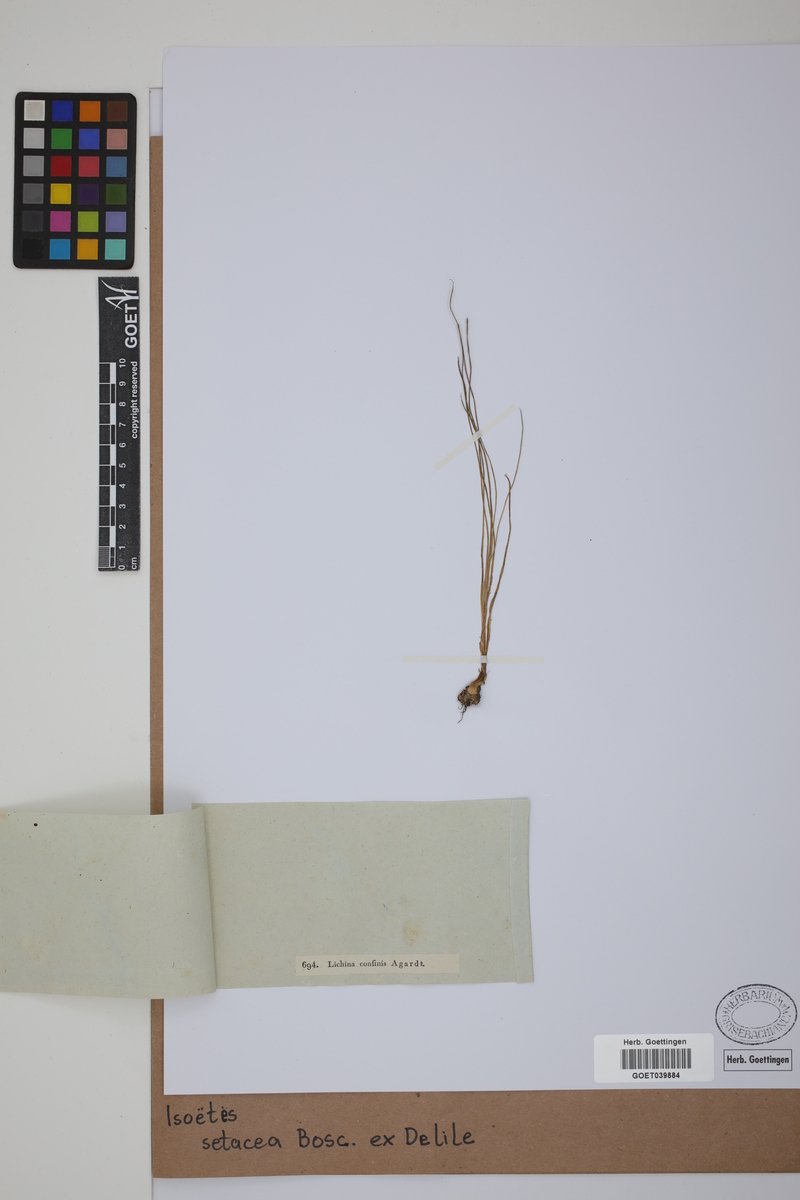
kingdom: Plantae
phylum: Tracheophyta
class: Lycopodiopsida
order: Isoetales
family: Isoetaceae
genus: Isoetes
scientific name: Isoetes longissima
